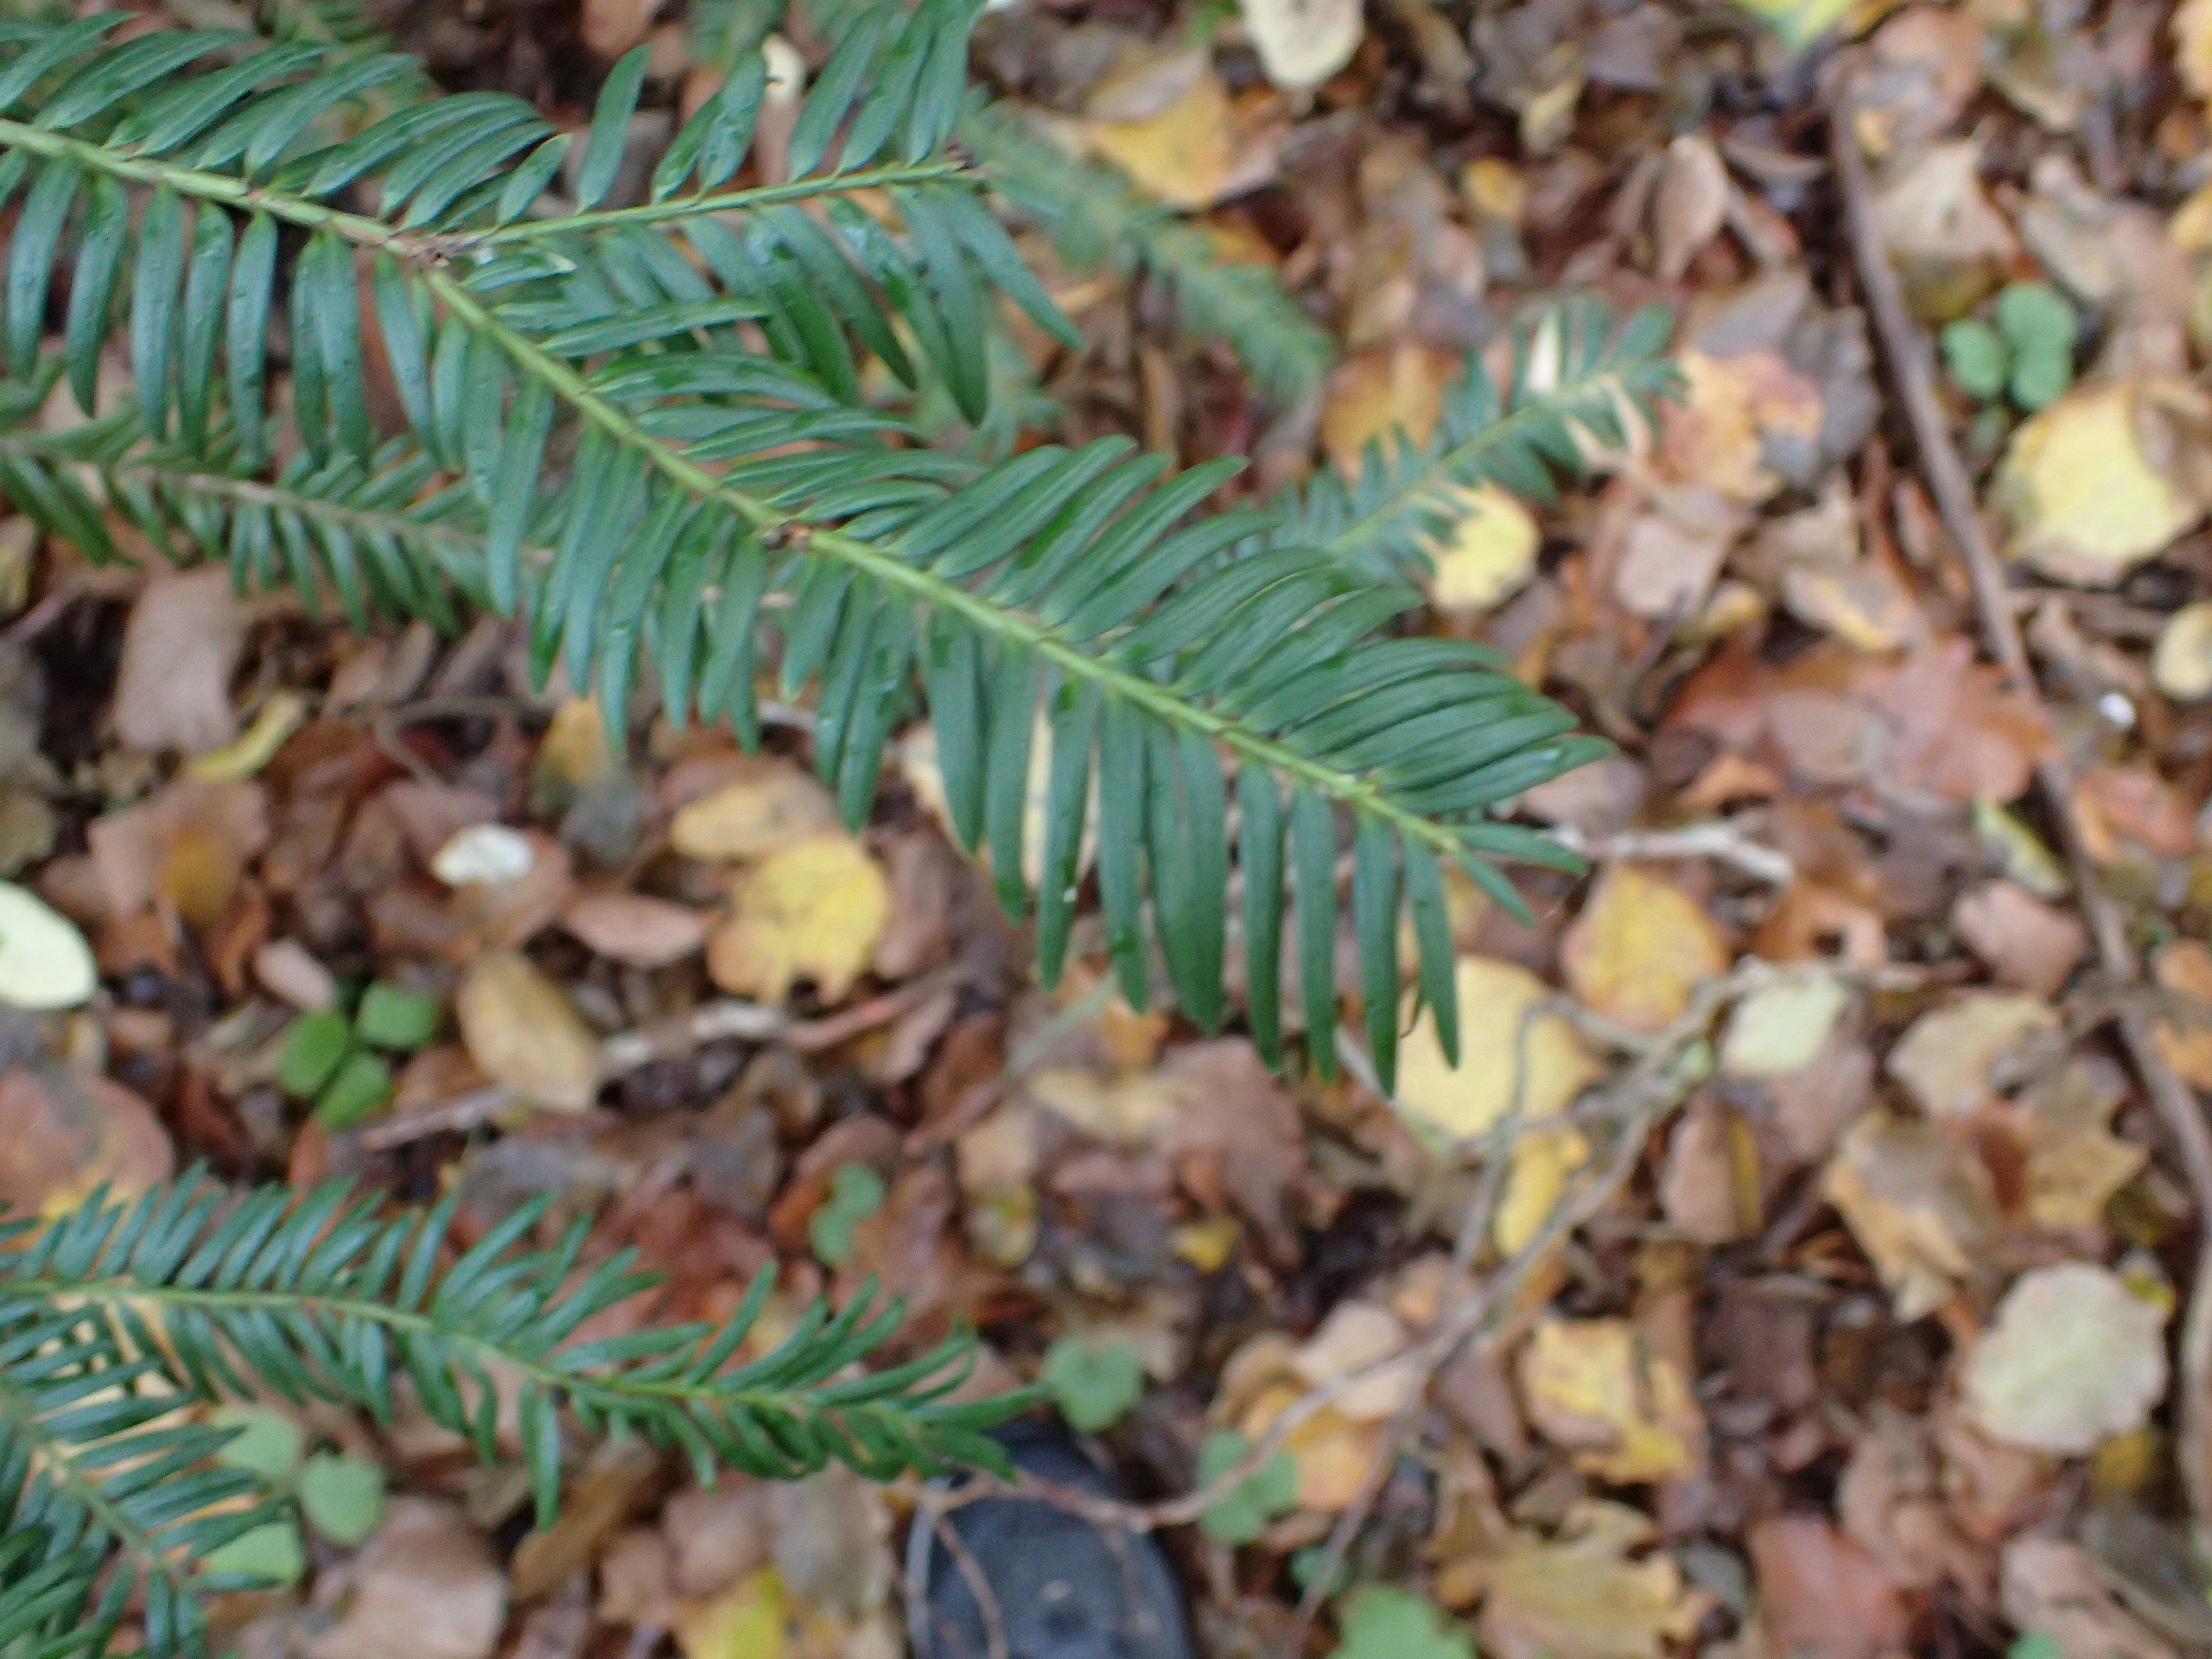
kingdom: Plantae
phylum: Tracheophyta
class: Pinopsida
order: Pinales
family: Taxaceae
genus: Taxus
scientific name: Taxus baccata
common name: Almindelig taks
